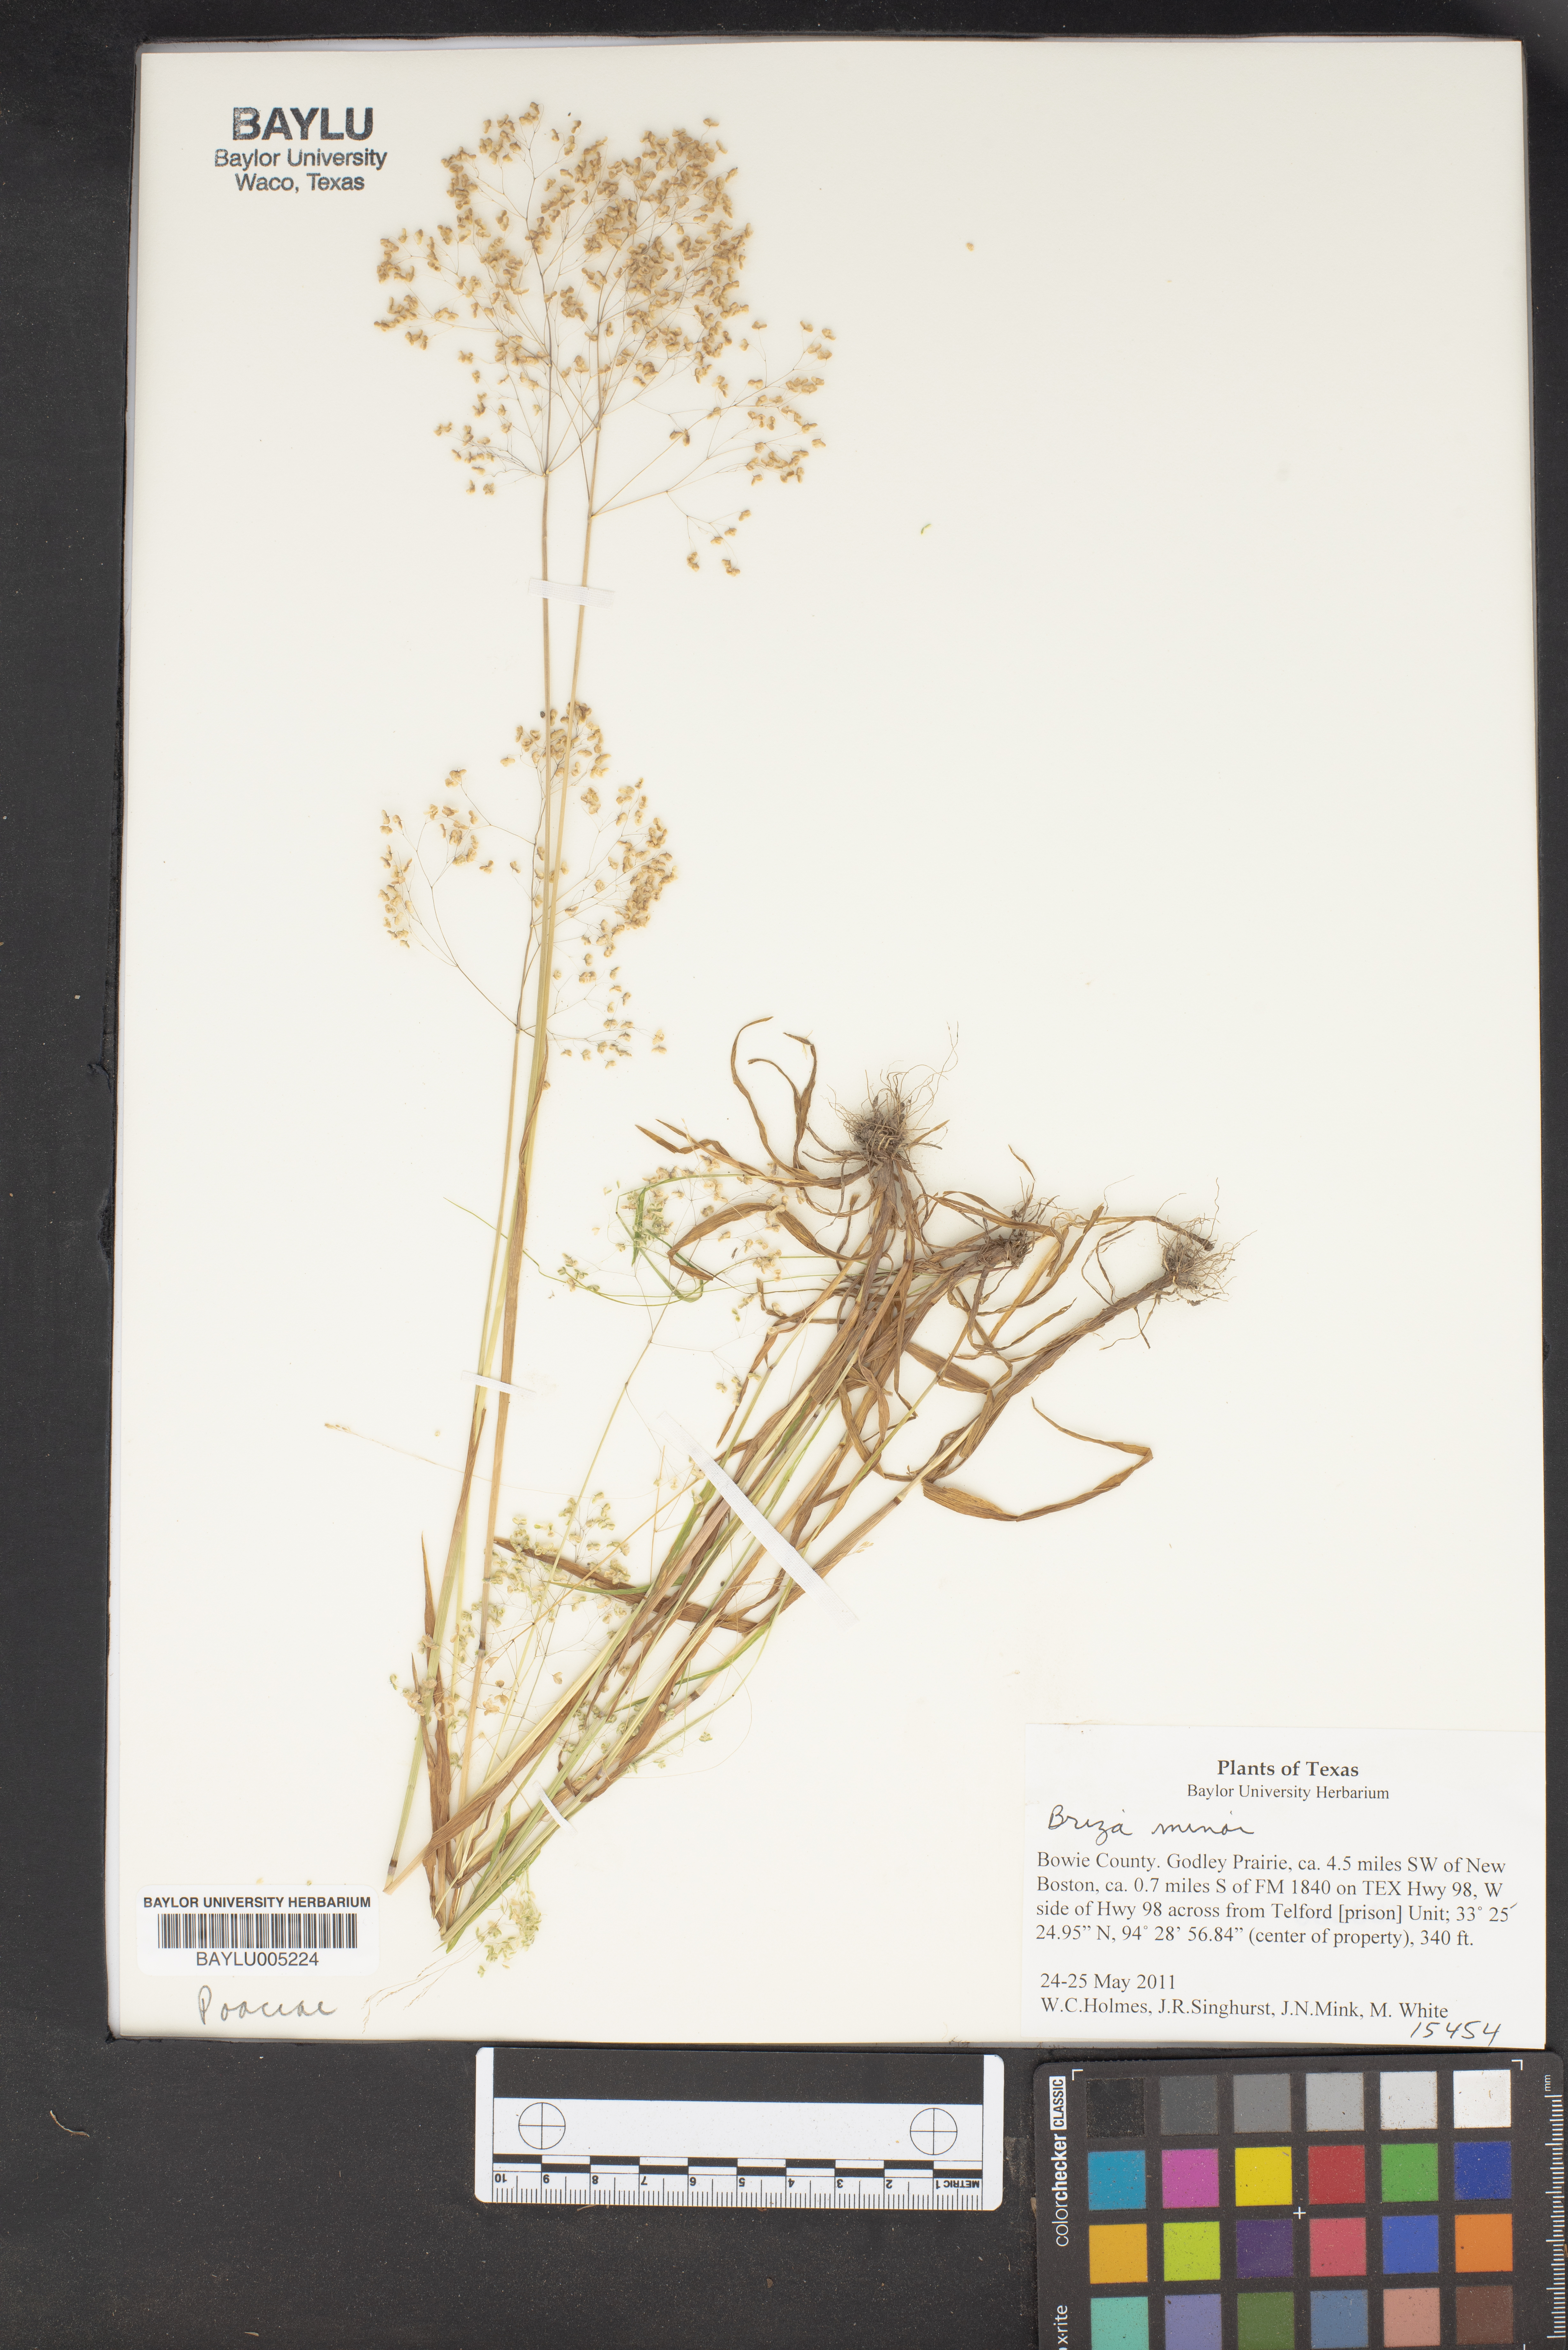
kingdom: Plantae
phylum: Tracheophyta
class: Liliopsida
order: Poales
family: Poaceae
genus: Briza
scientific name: Briza minor
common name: Lesser quaking-grass
